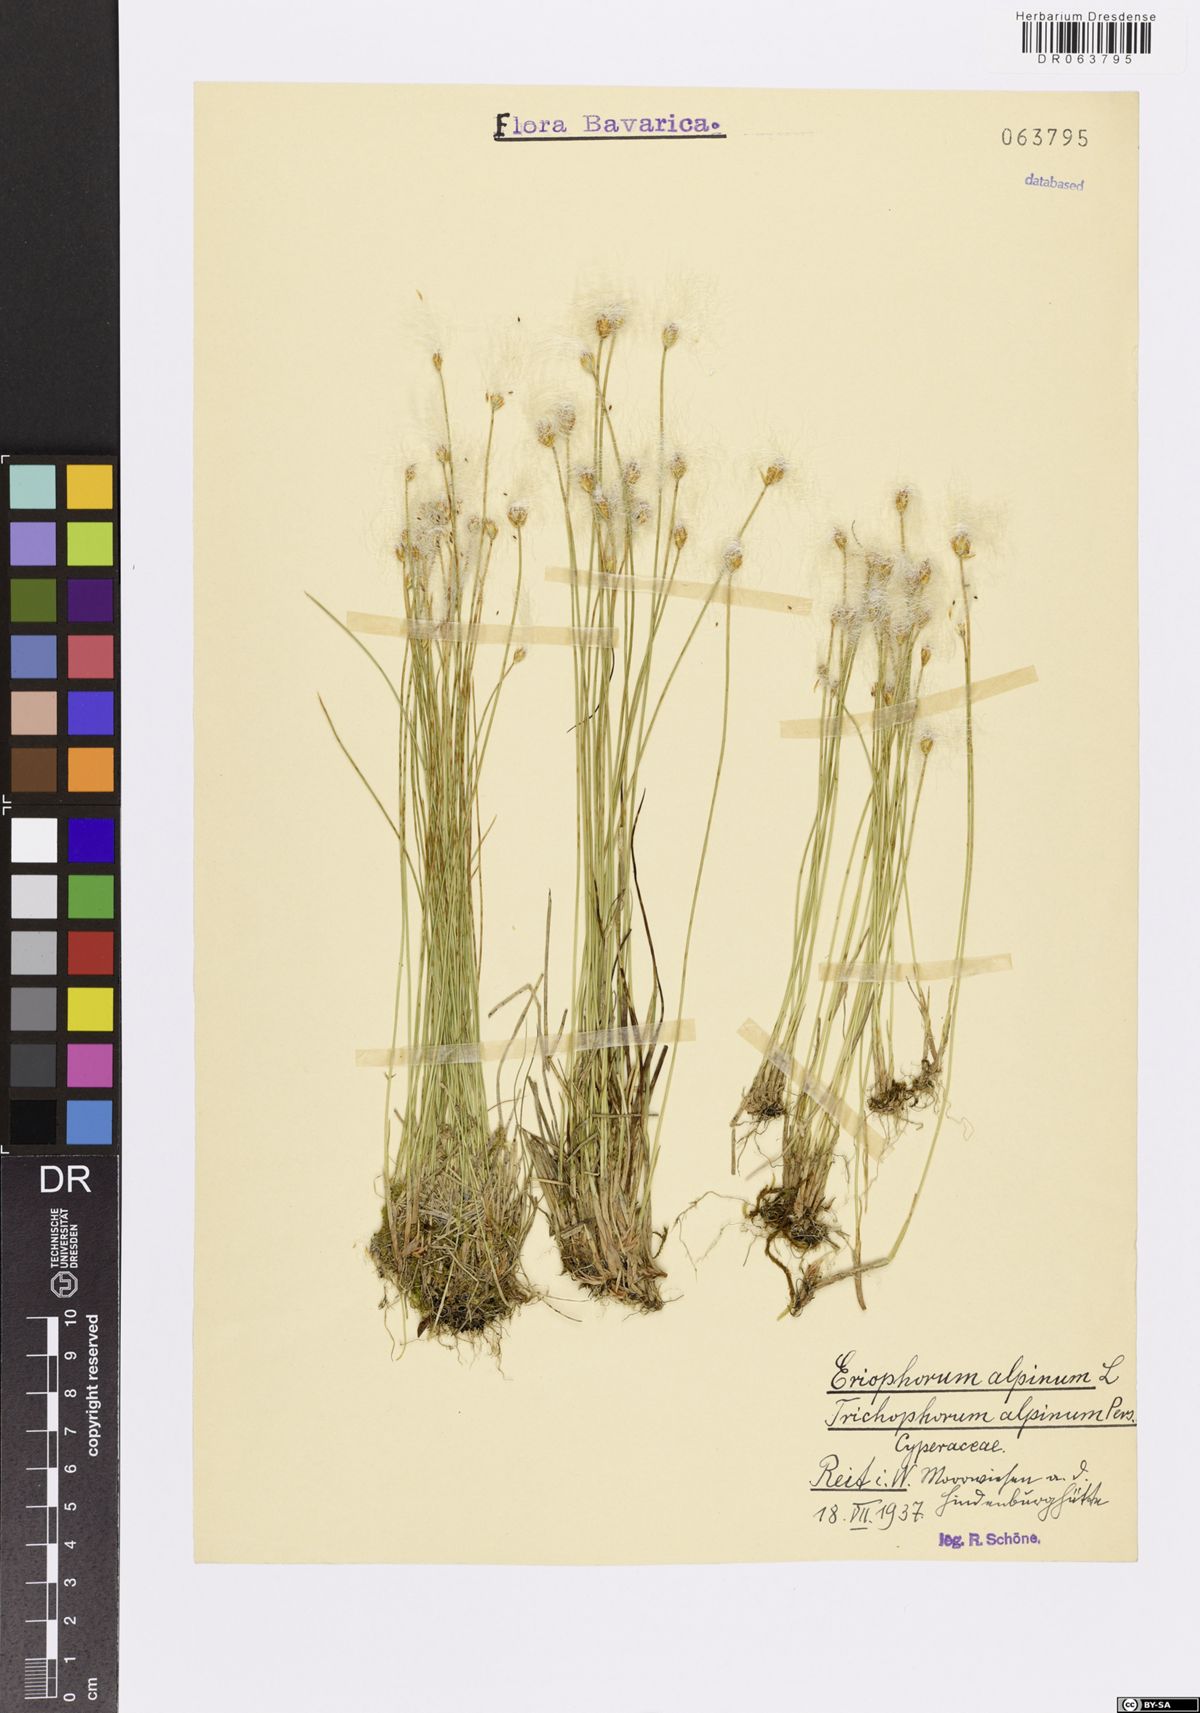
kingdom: Plantae
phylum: Tracheophyta
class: Liliopsida
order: Poales
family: Cyperaceae
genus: Trichophorum
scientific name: Trichophorum alpinum
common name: Alpine bulrush
